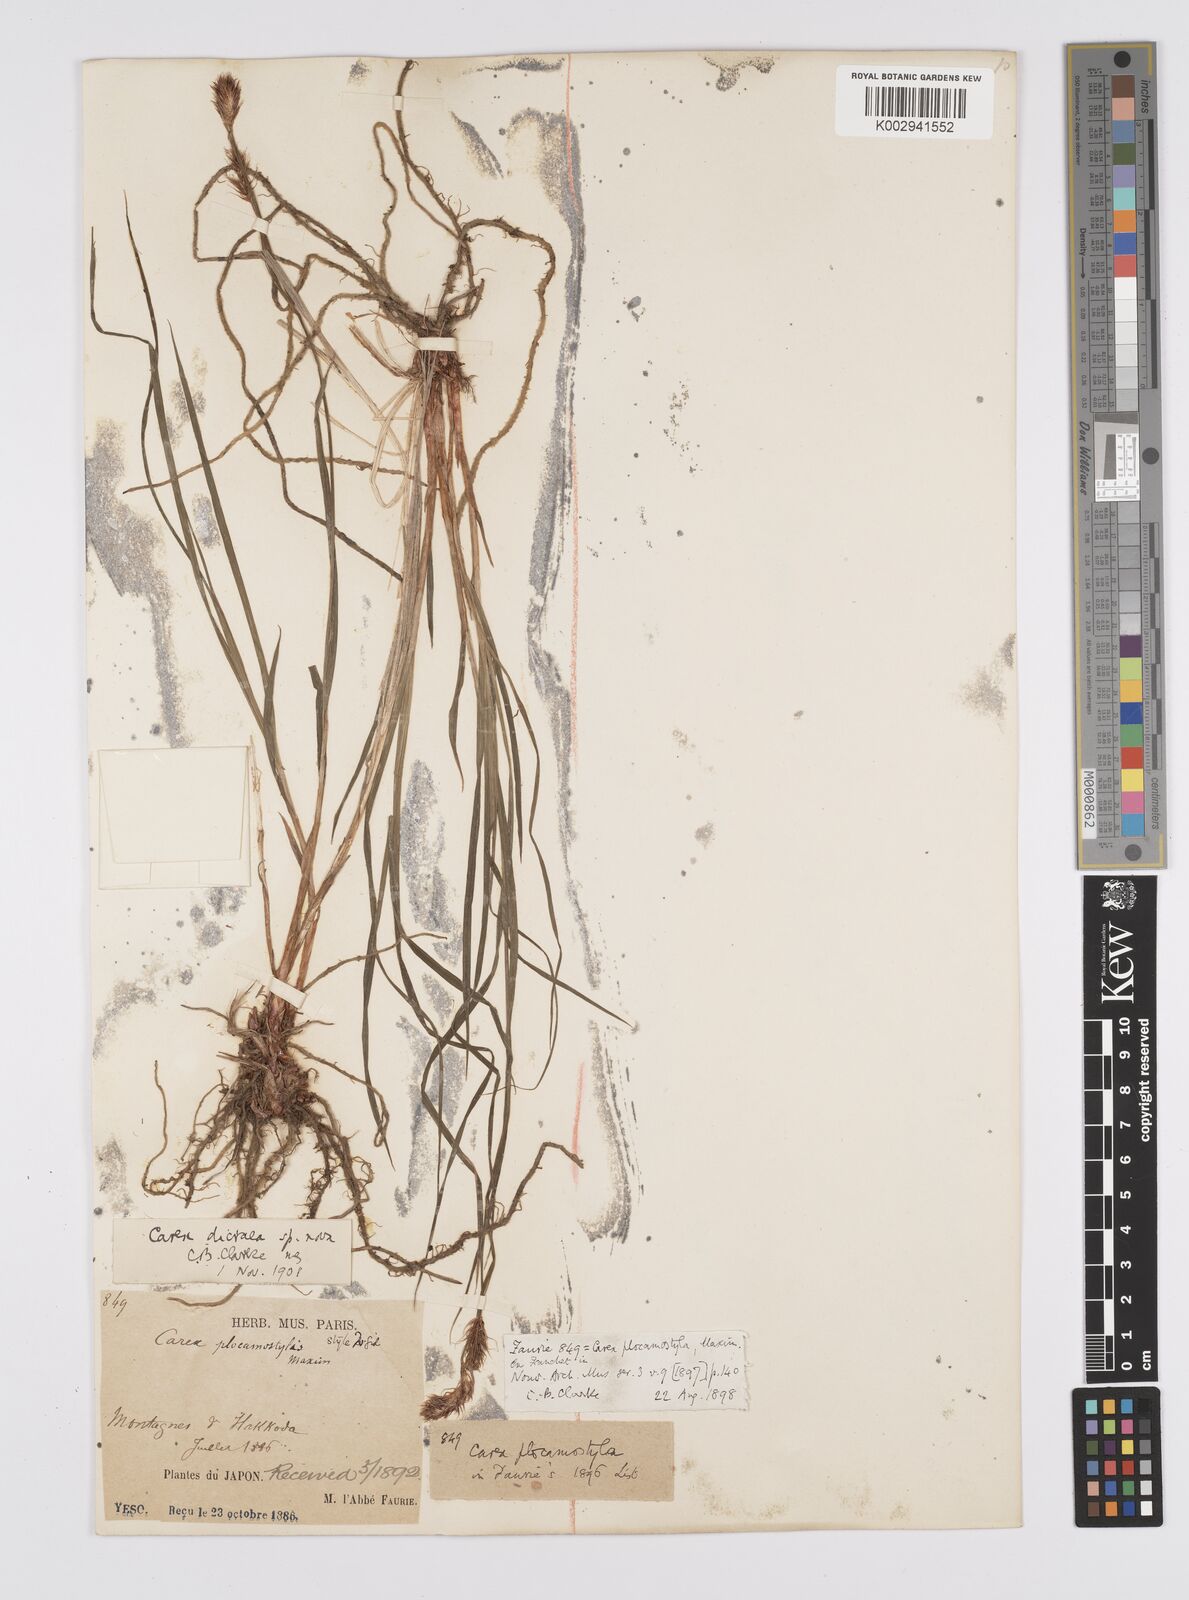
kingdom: Plantae
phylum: Tracheophyta
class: Liliopsida
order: Poales
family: Cyperaceae
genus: Carex
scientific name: Carex doenitzii
